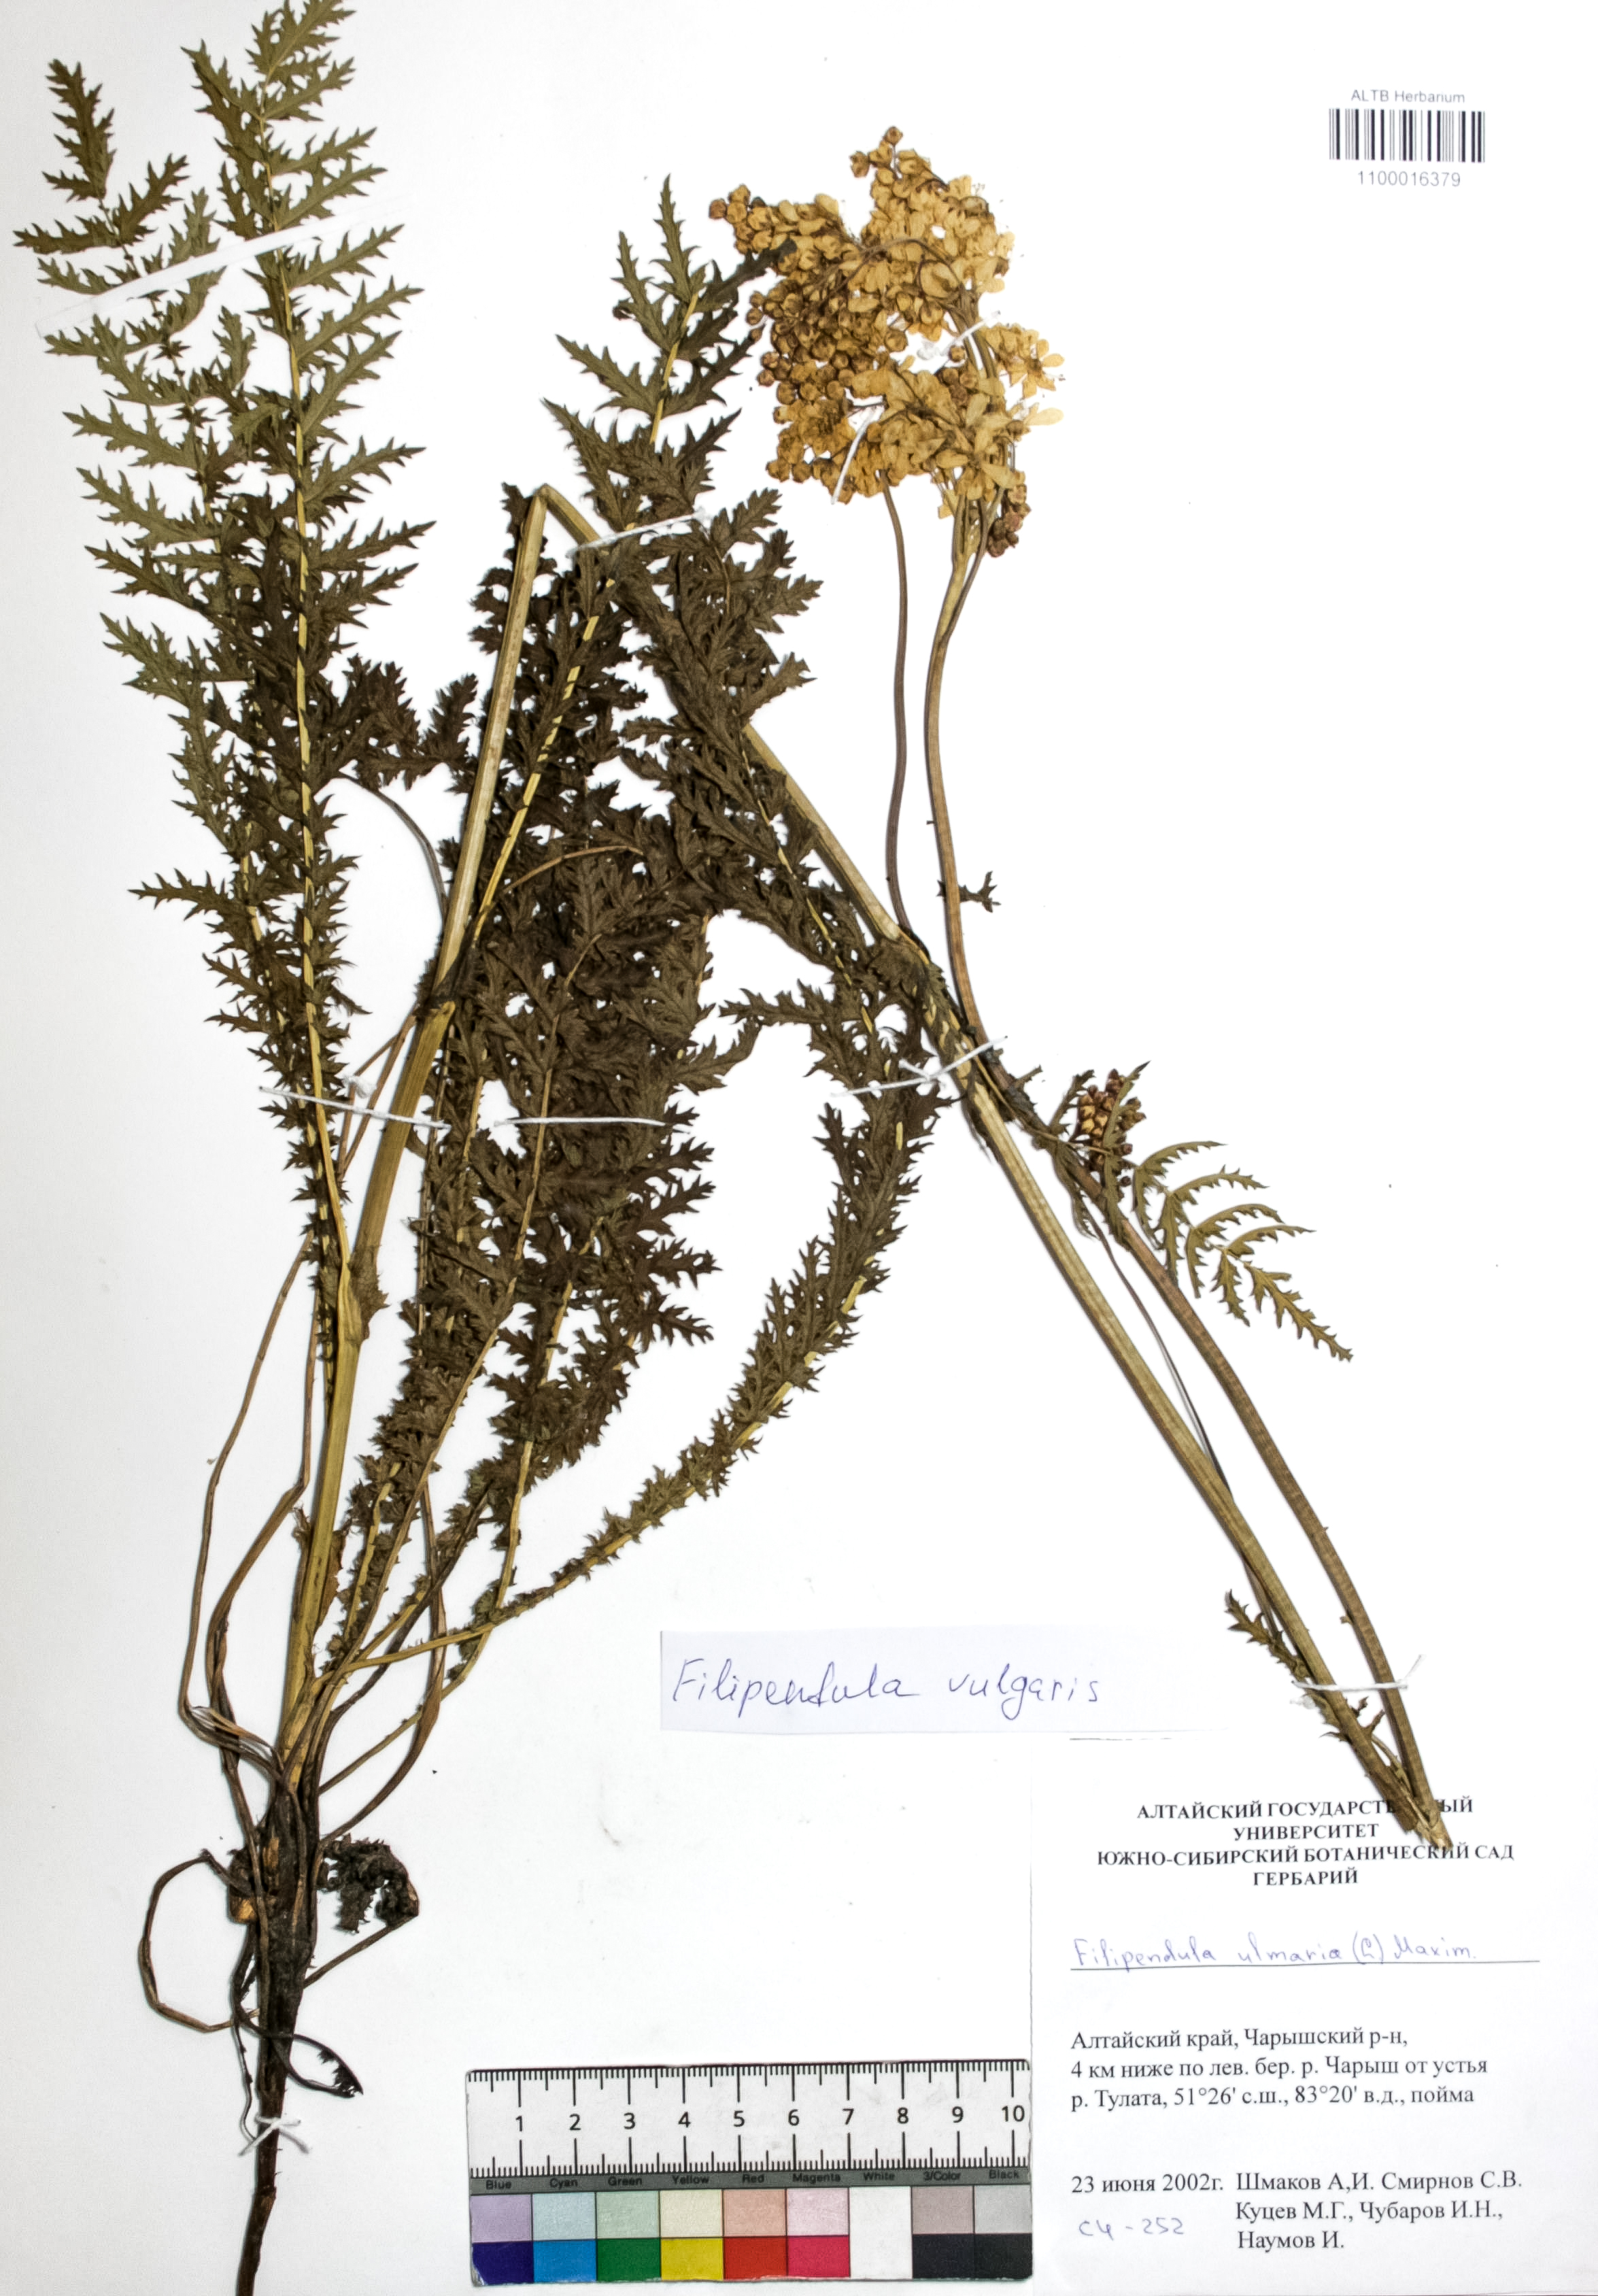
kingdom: Plantae
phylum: Tracheophyta
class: Magnoliopsida
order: Rosales
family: Rosaceae
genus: Filipendula
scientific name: Filipendula vulgaris
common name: Dropwort
